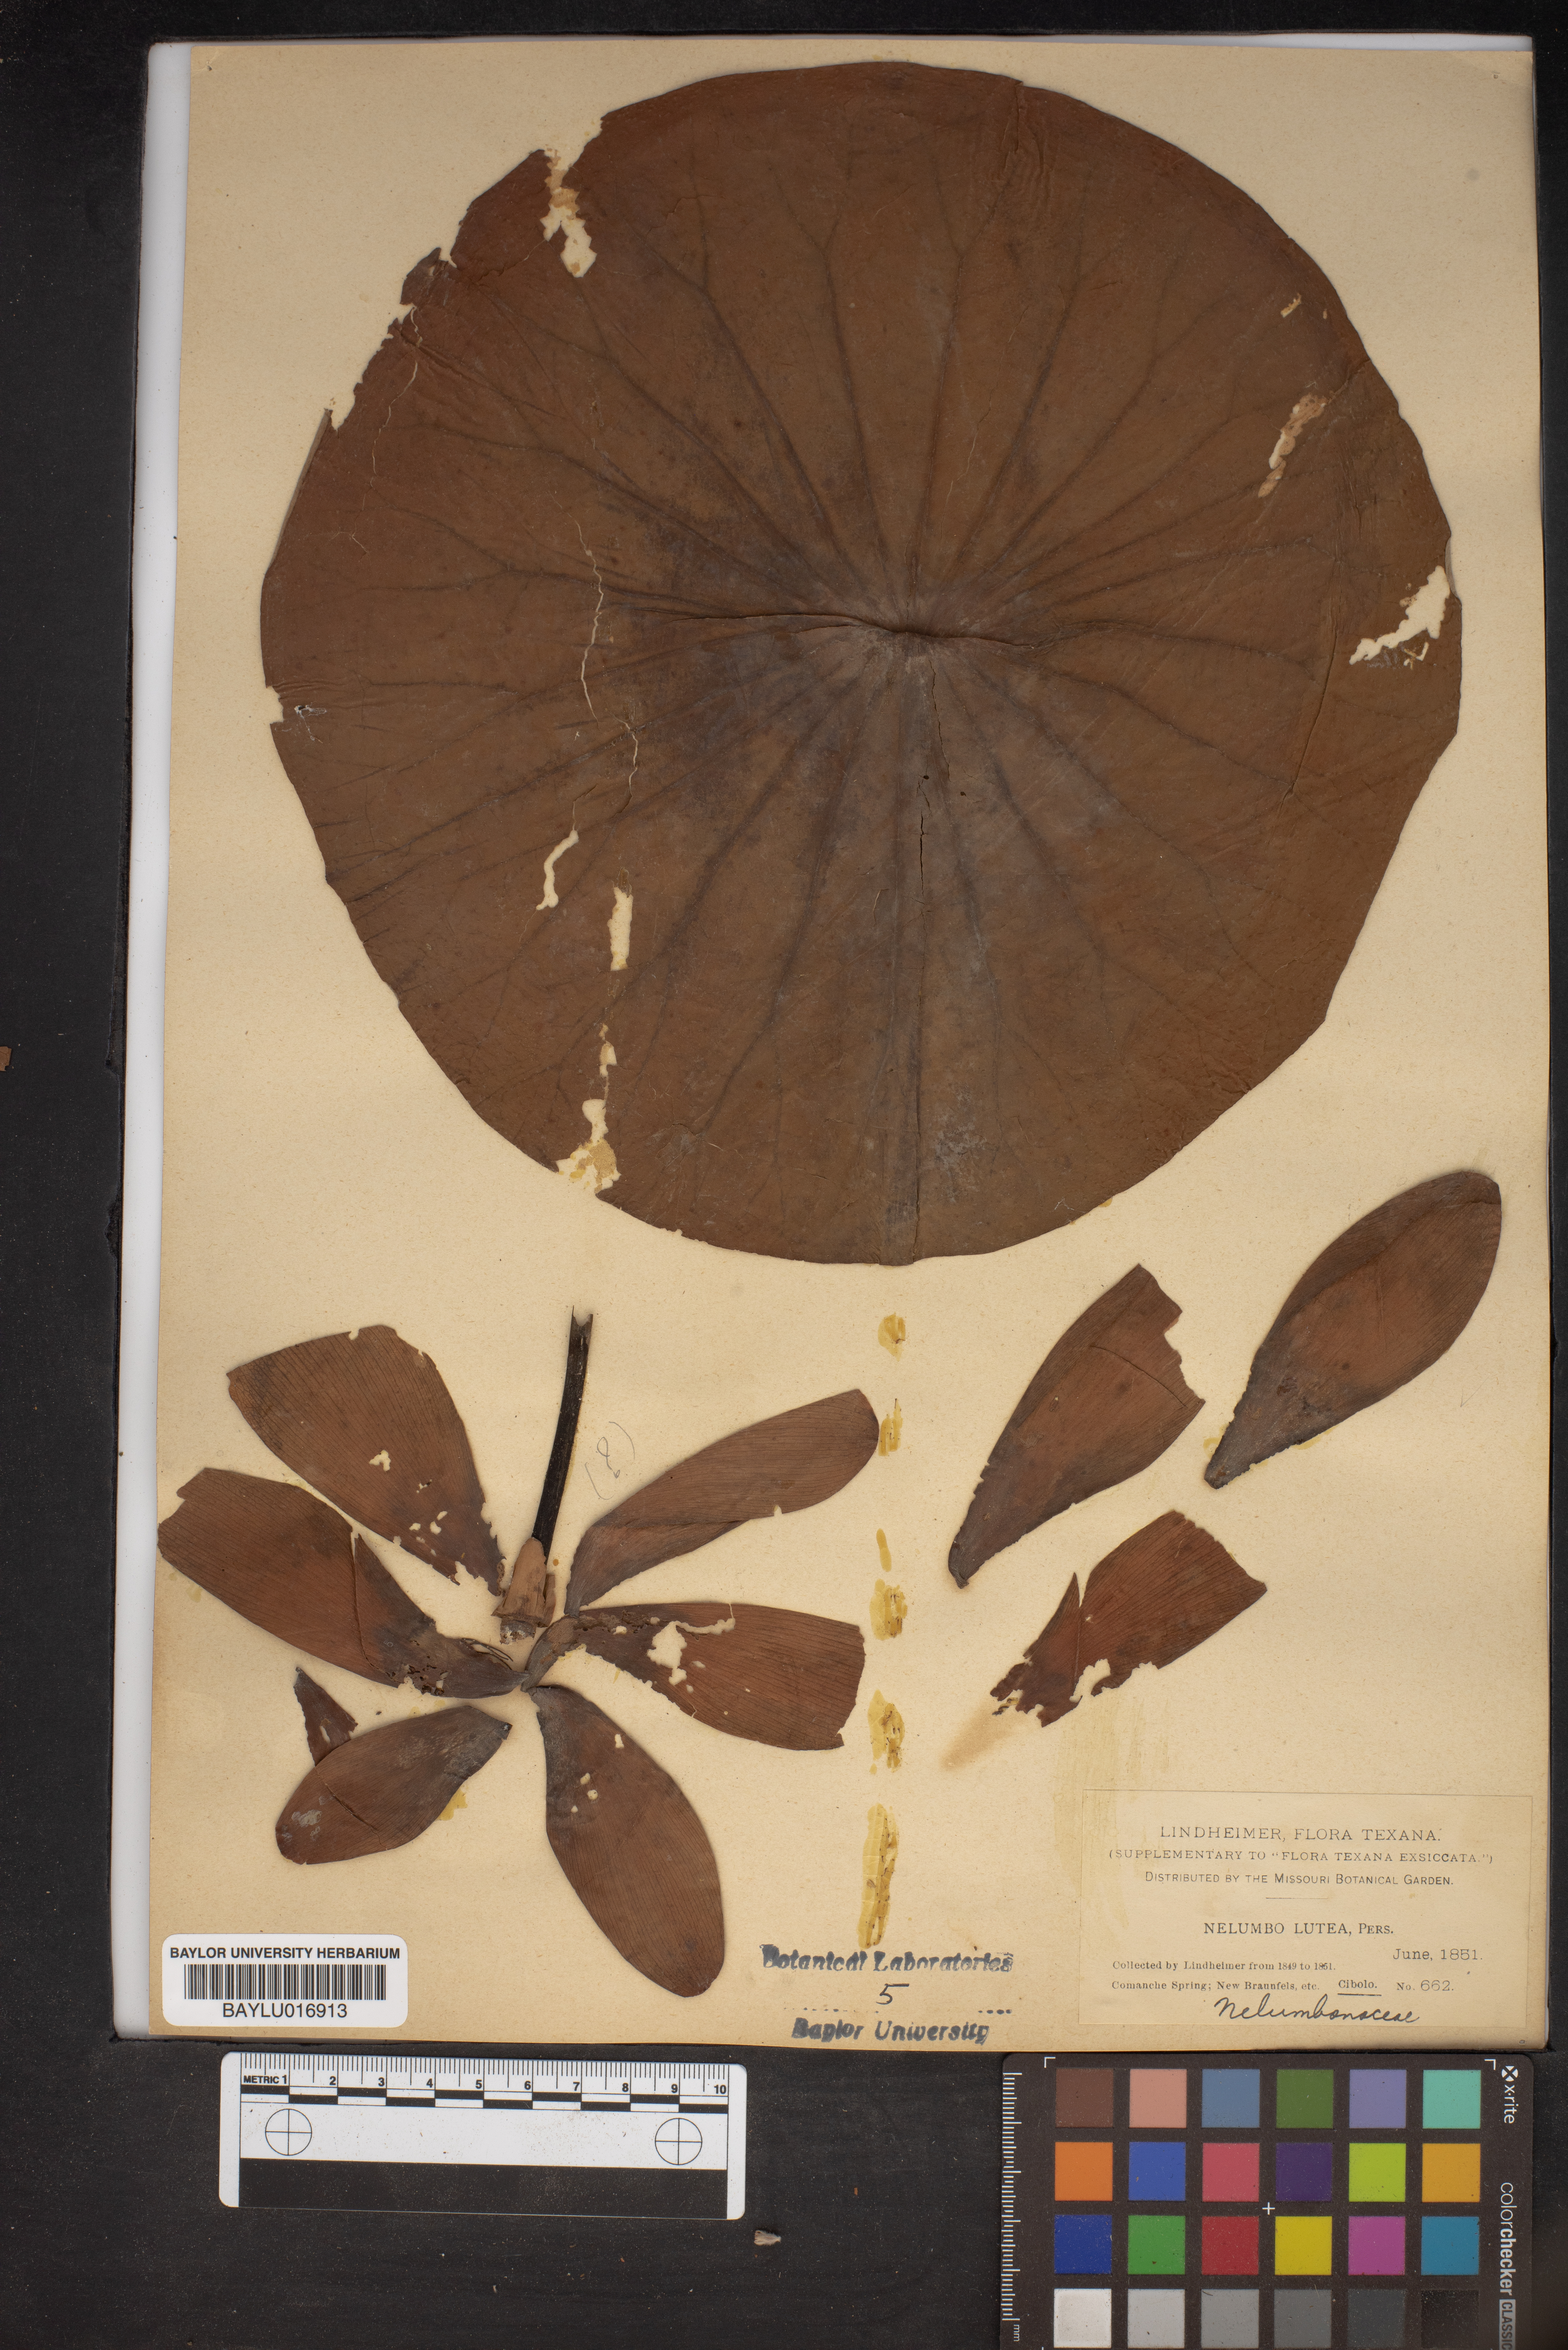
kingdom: Plantae
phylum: Tracheophyta
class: Magnoliopsida
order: Proteales
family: Nelumbonaceae
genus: Nelumbo
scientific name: Nelumbo lutea
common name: American lotus
